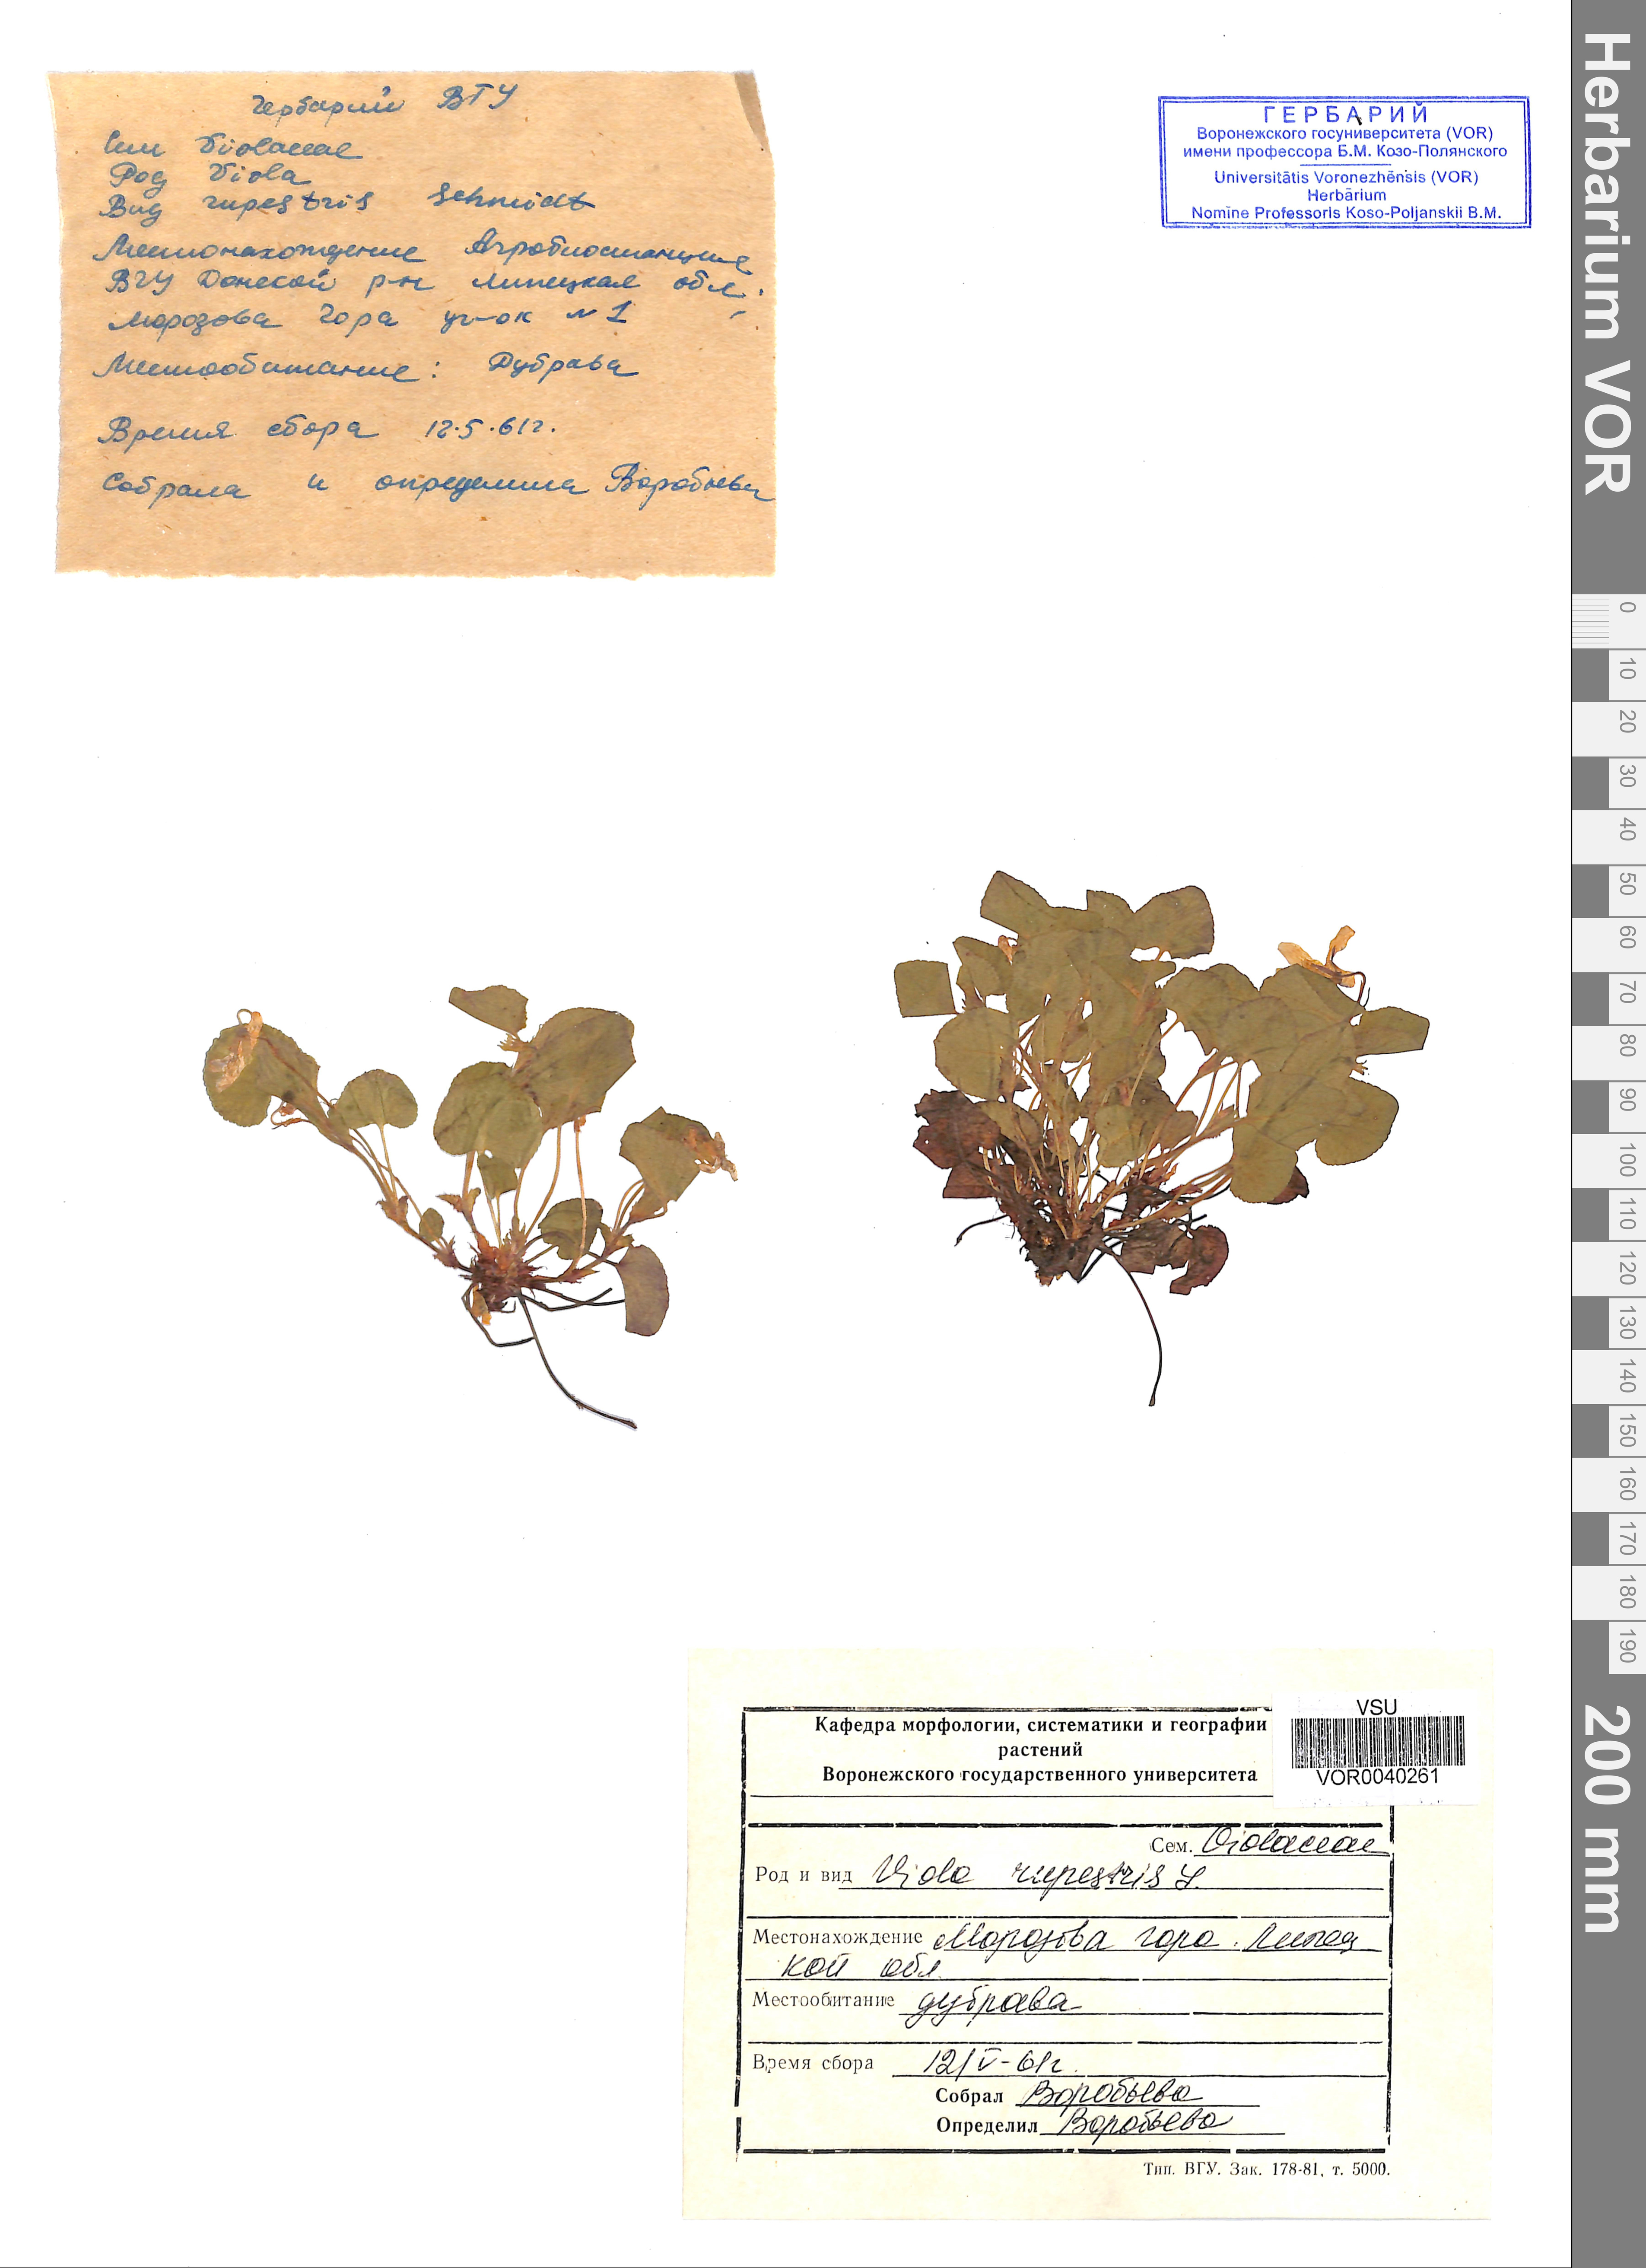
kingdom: Plantae
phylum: Tracheophyta
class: Magnoliopsida
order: Malpighiales
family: Violaceae
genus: Viola
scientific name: Viola rupestris
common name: Teesdale violet
